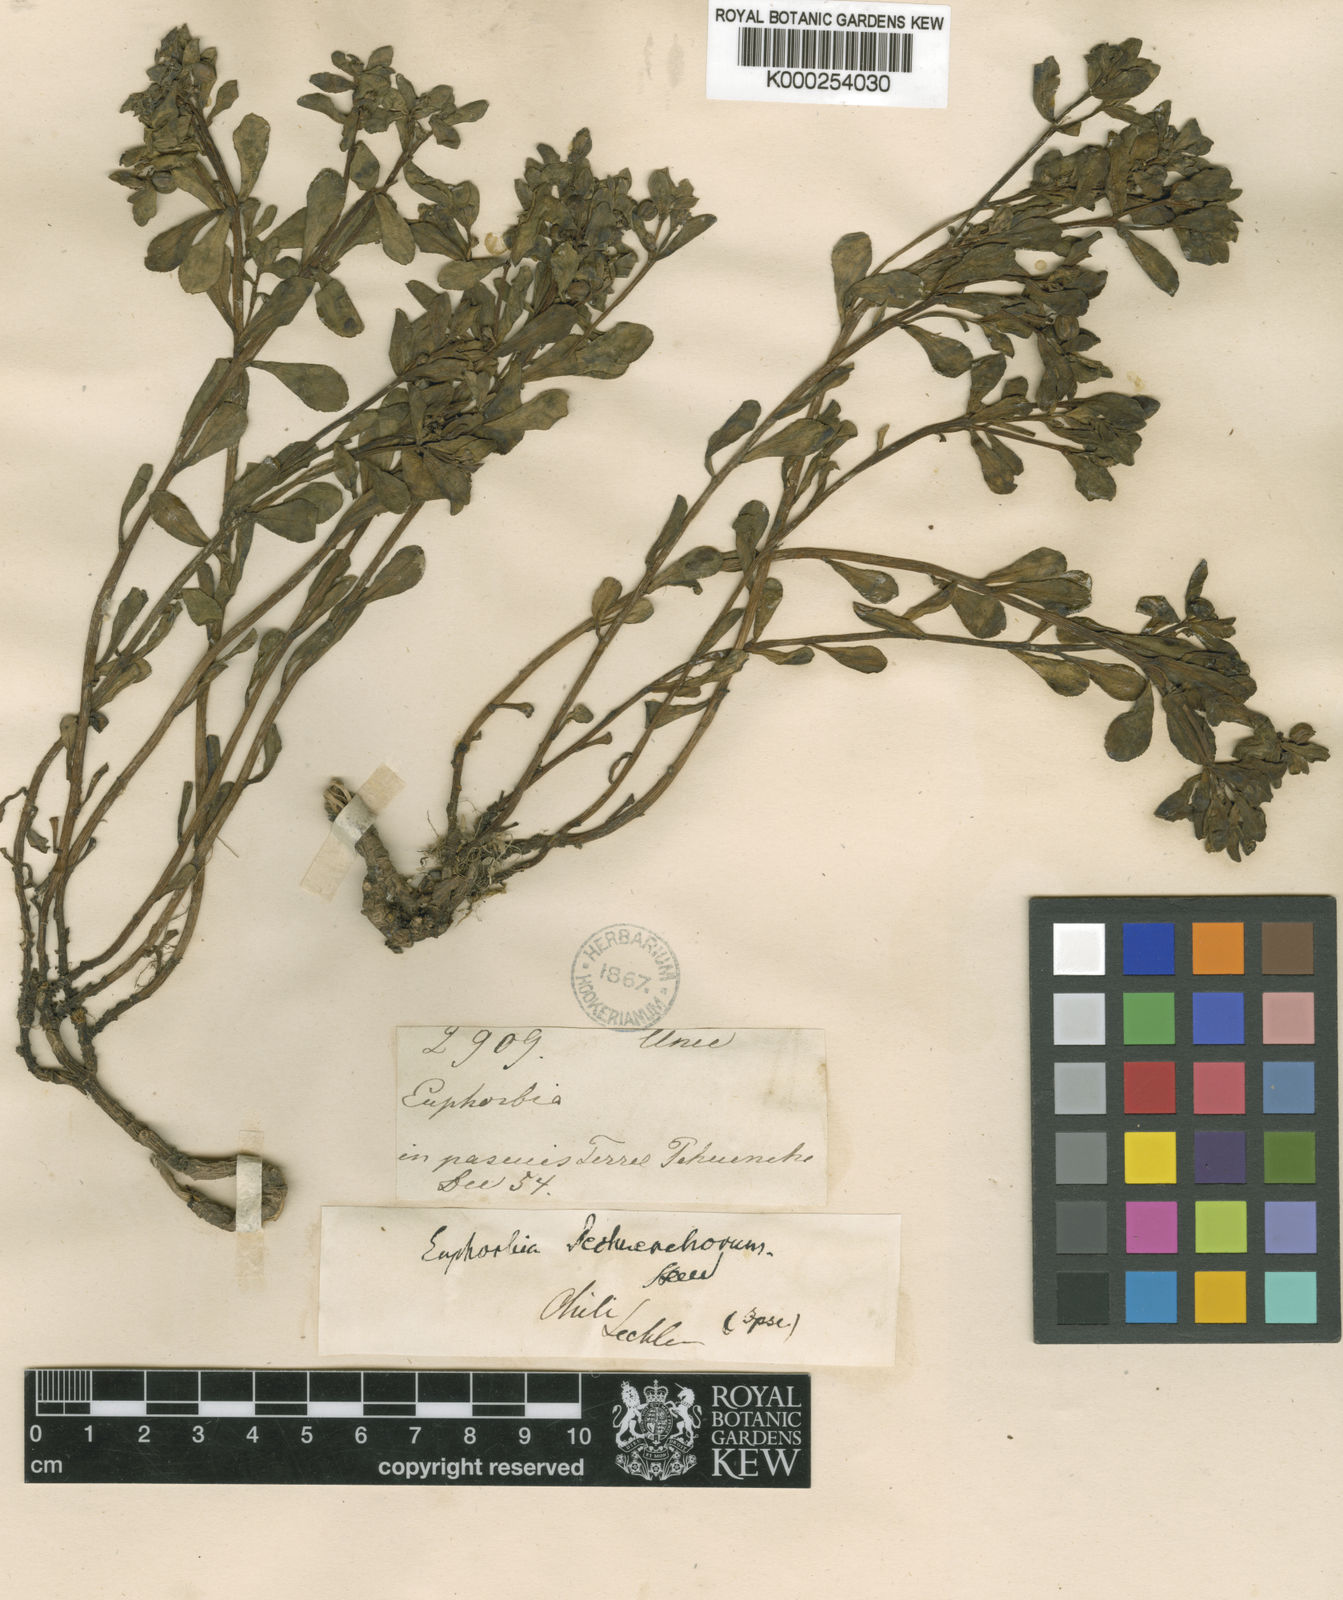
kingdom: Plantae
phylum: Tracheophyta
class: Magnoliopsida
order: Malpighiales
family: Euphorbiaceae
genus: Euphorbia
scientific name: Euphorbia
